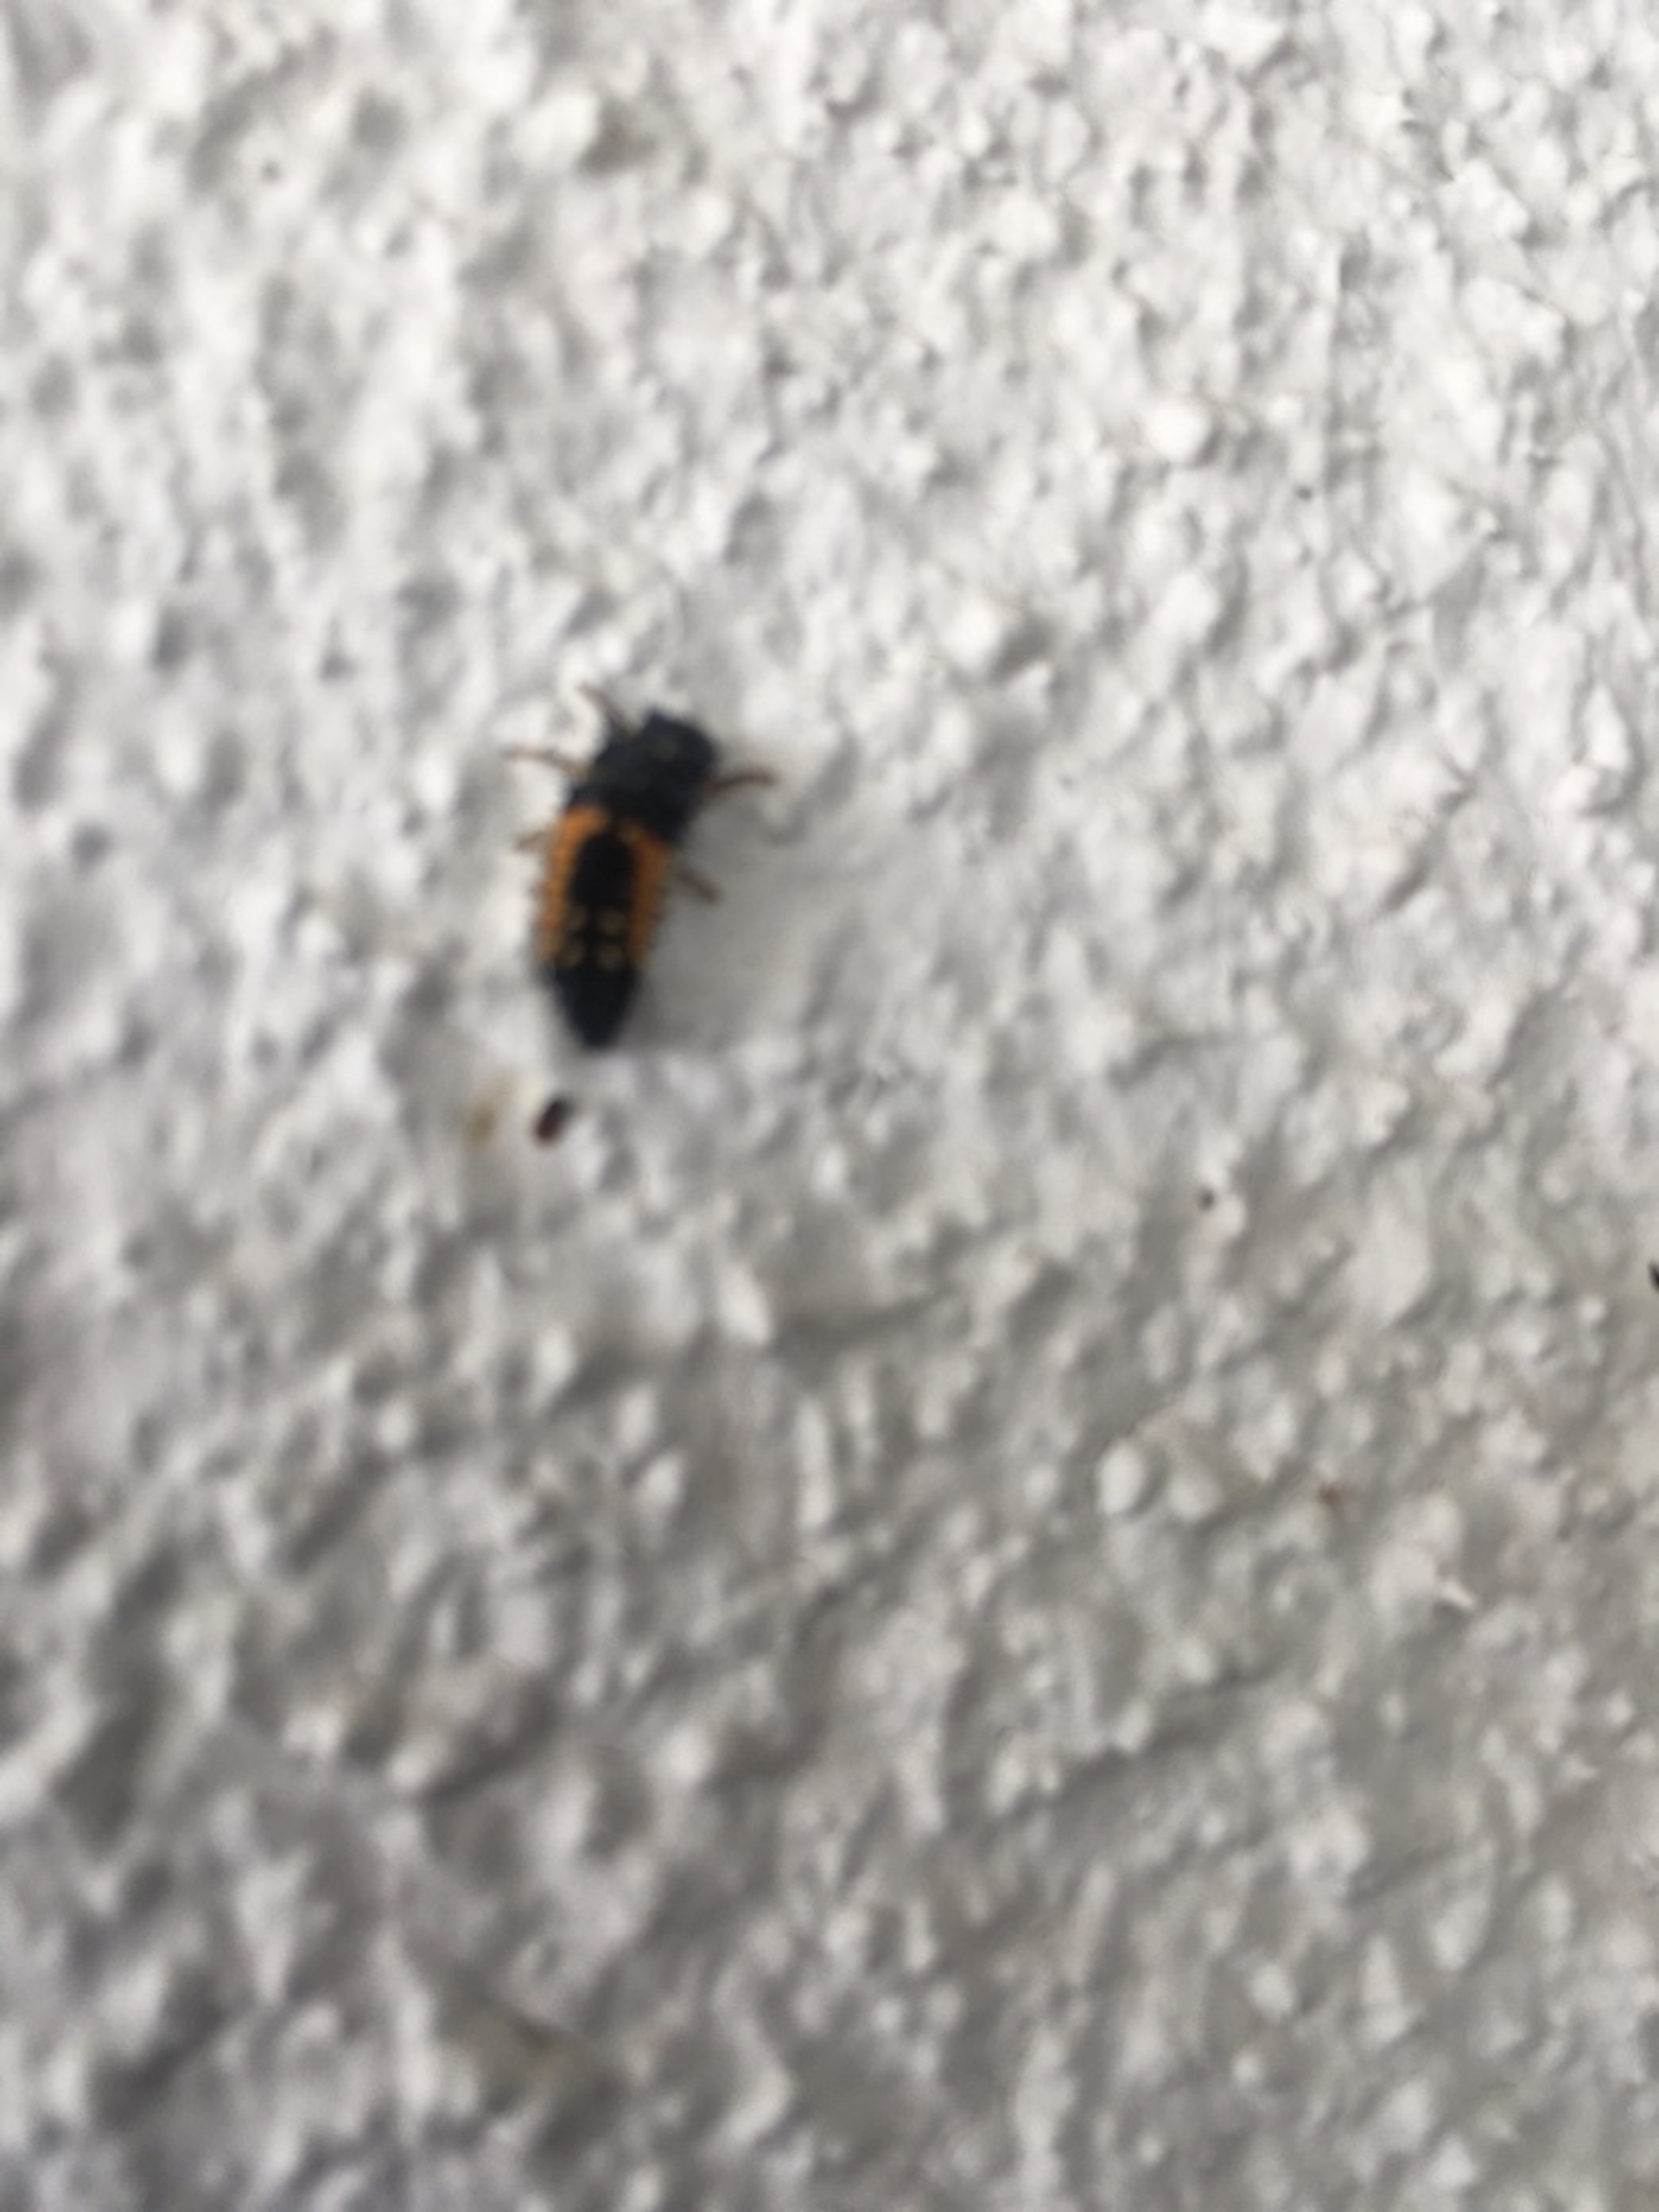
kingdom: Animalia
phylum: Arthropoda
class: Insecta
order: Coleoptera
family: Coccinellidae
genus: Harmonia
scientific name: Harmonia axyridis
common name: Harlekinmariehøne
